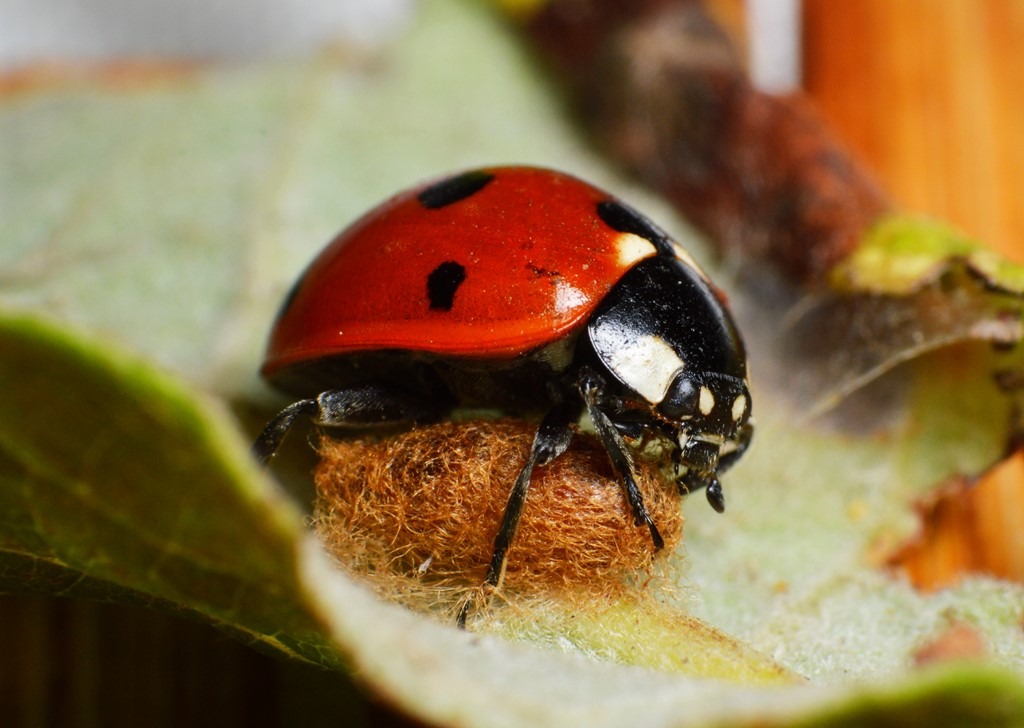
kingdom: Animalia
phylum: Arthropoda
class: Insecta
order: Hymenoptera
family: Braconidae
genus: Dinocampus
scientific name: Dinocampus coccinellae
